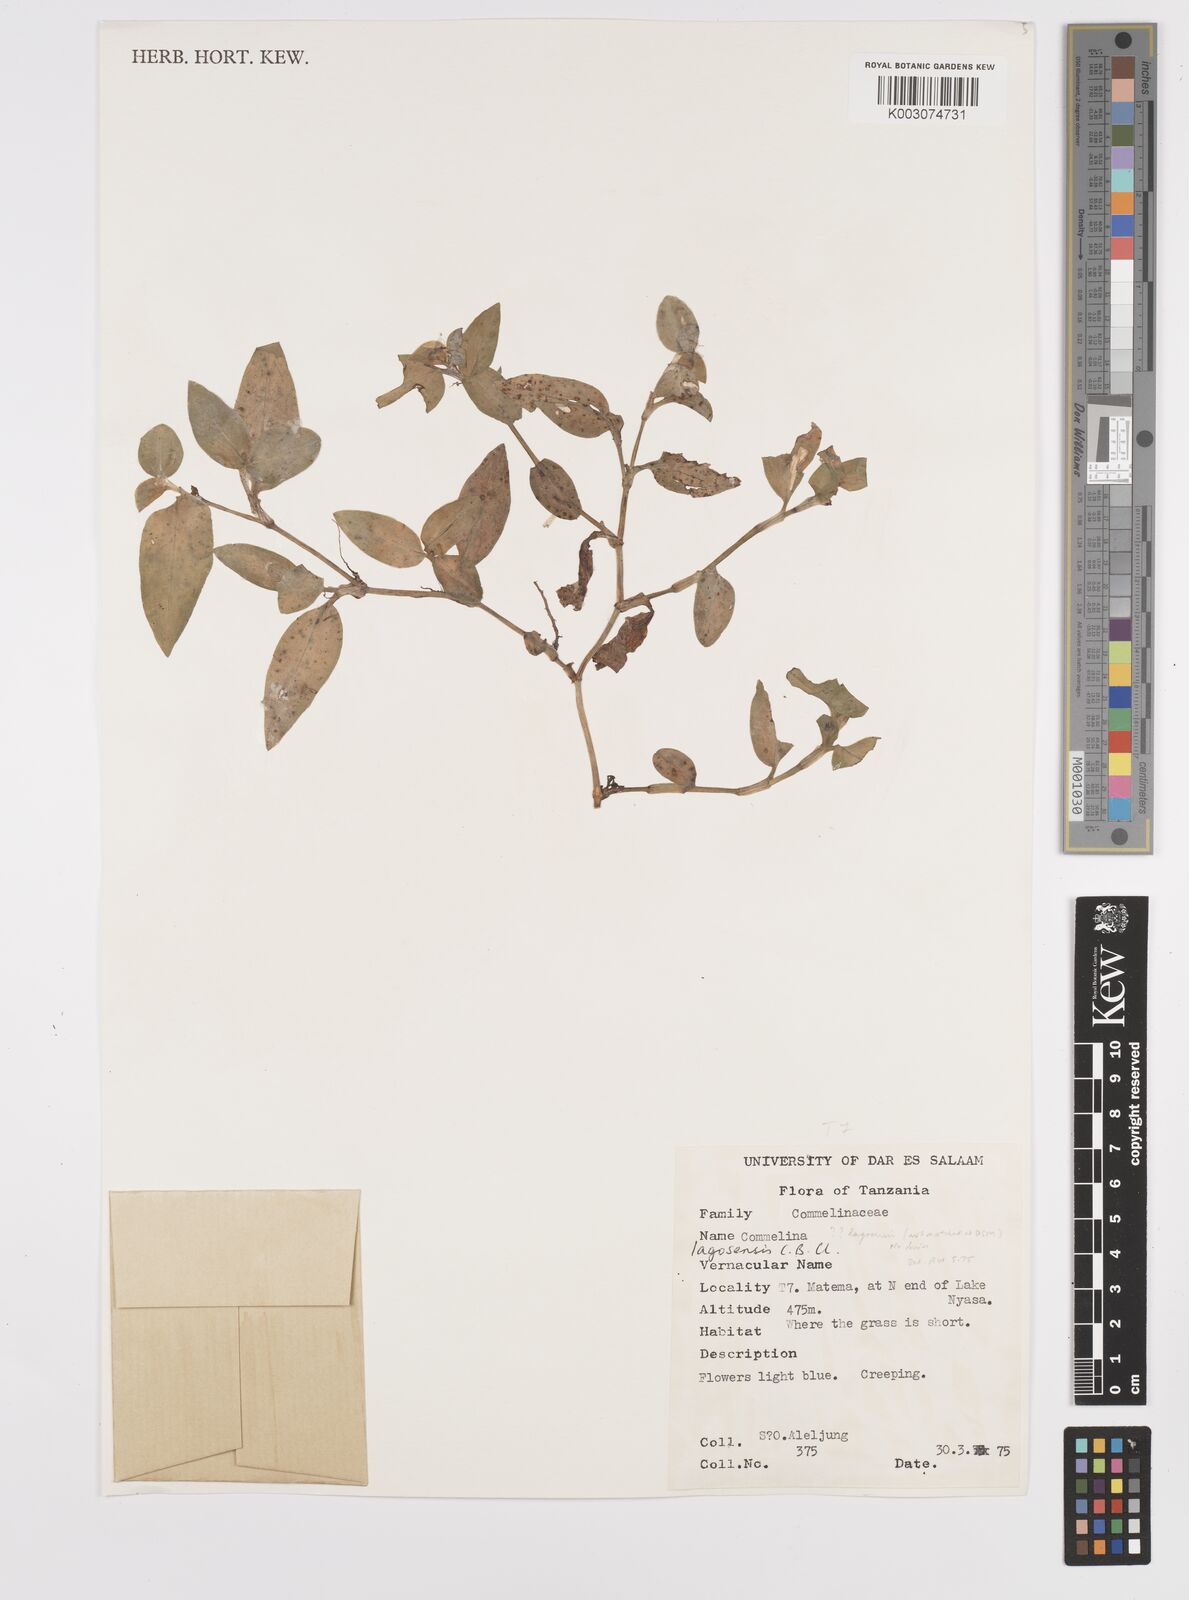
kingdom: Plantae
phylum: Tracheophyta
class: Liliopsida
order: Commelinales
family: Commelinaceae
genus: Commelina
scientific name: Commelina bracteosa
